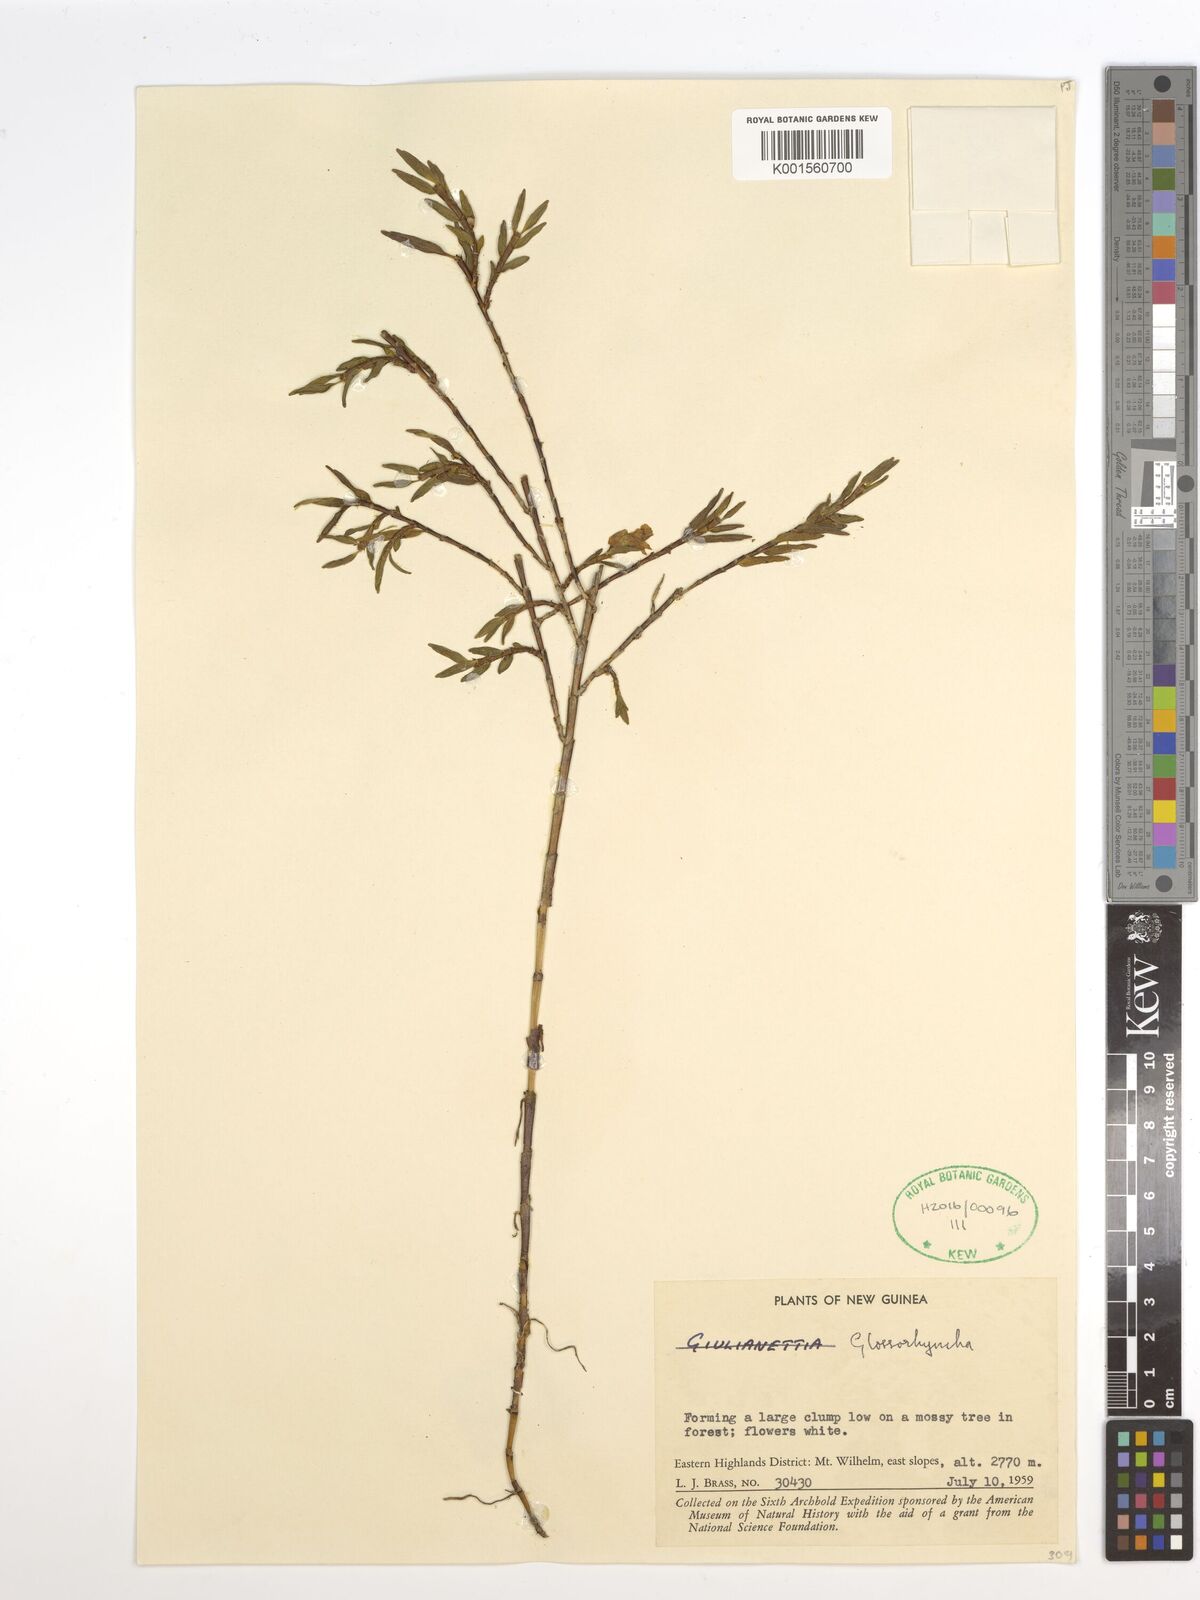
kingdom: Plantae
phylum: Tracheophyta
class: Liliopsida
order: Asparagales
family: Orchidaceae
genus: Glomera
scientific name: Glomera
